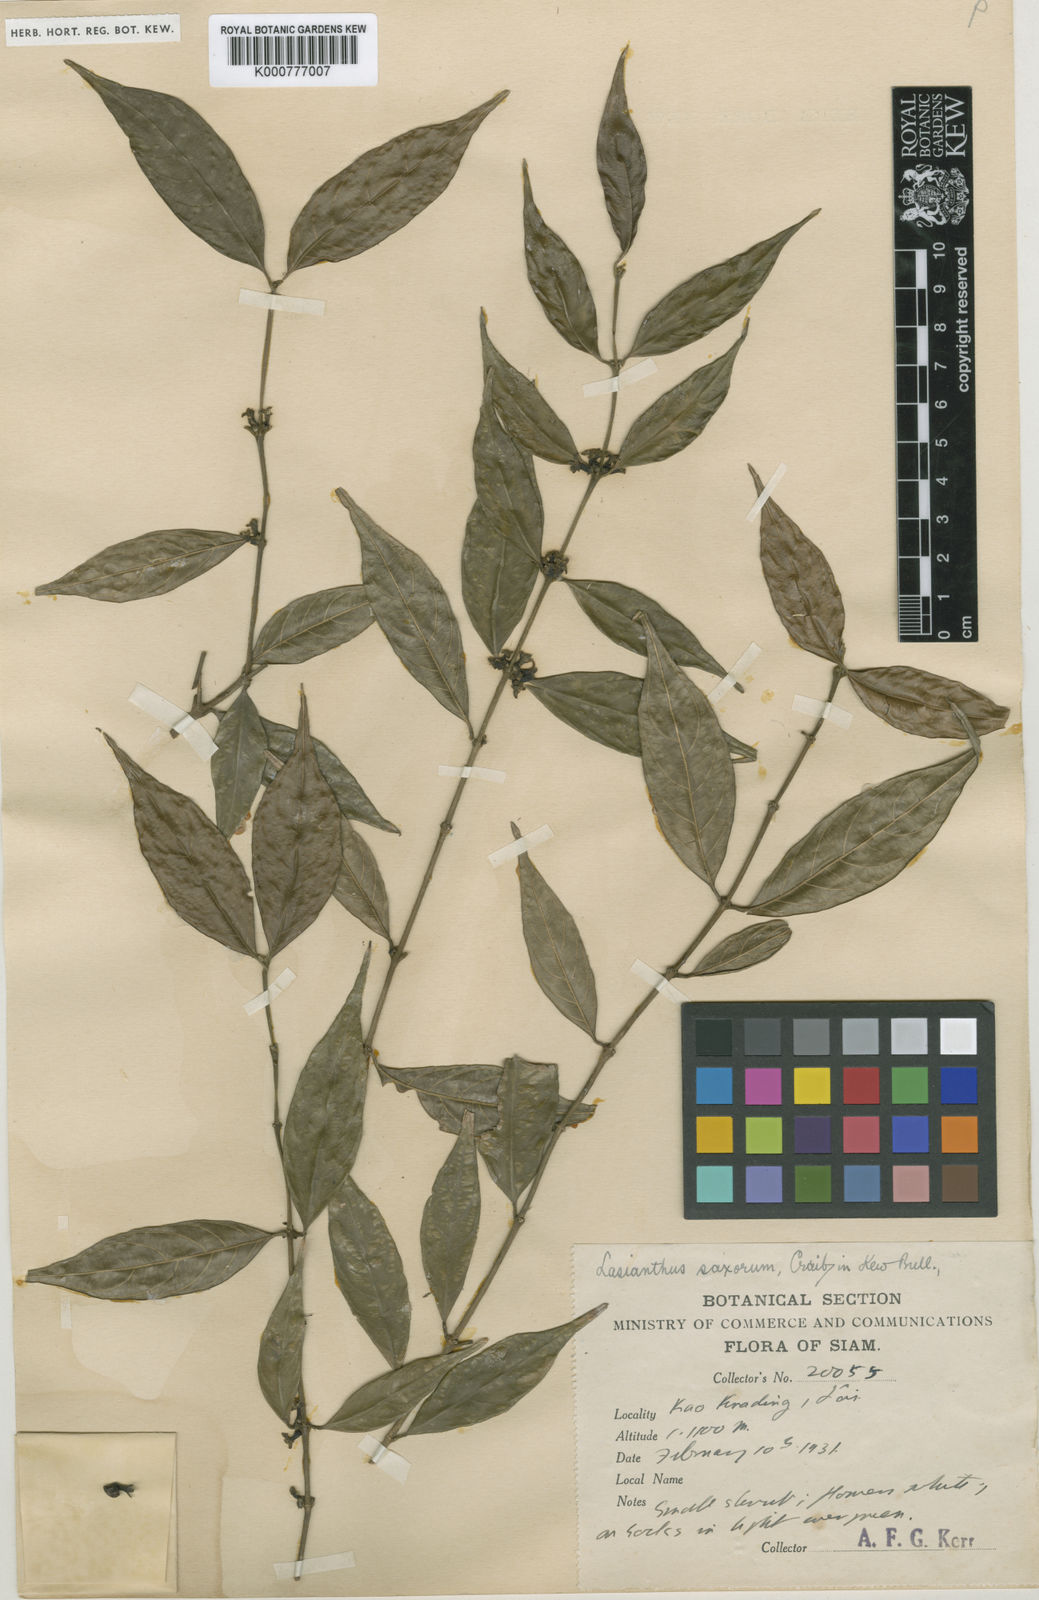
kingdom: Plantae
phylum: Tracheophyta
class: Magnoliopsida
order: Gentianales
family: Rubiaceae
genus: Lasianthus
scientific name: Lasianthus saxorum
